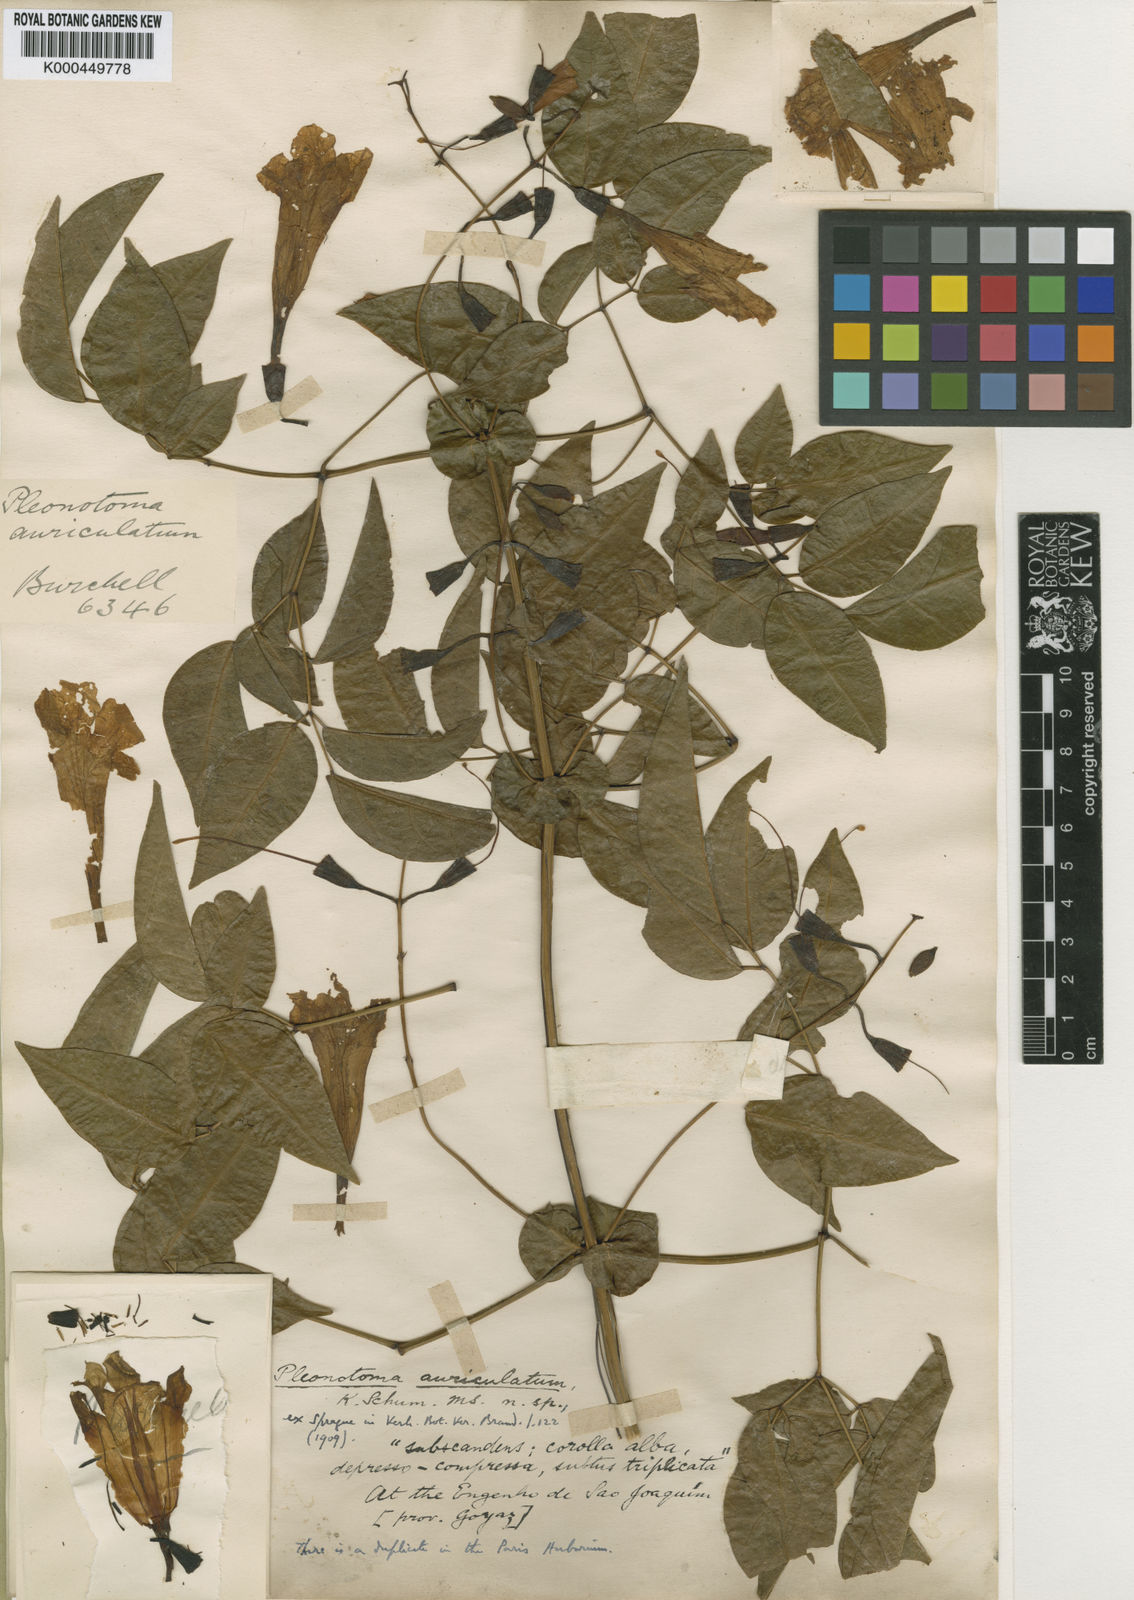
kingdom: Plantae
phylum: Tracheophyta
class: Magnoliopsida
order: Lamiales
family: Bignoniaceae
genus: Pleonotoma
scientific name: Pleonotoma melioides
